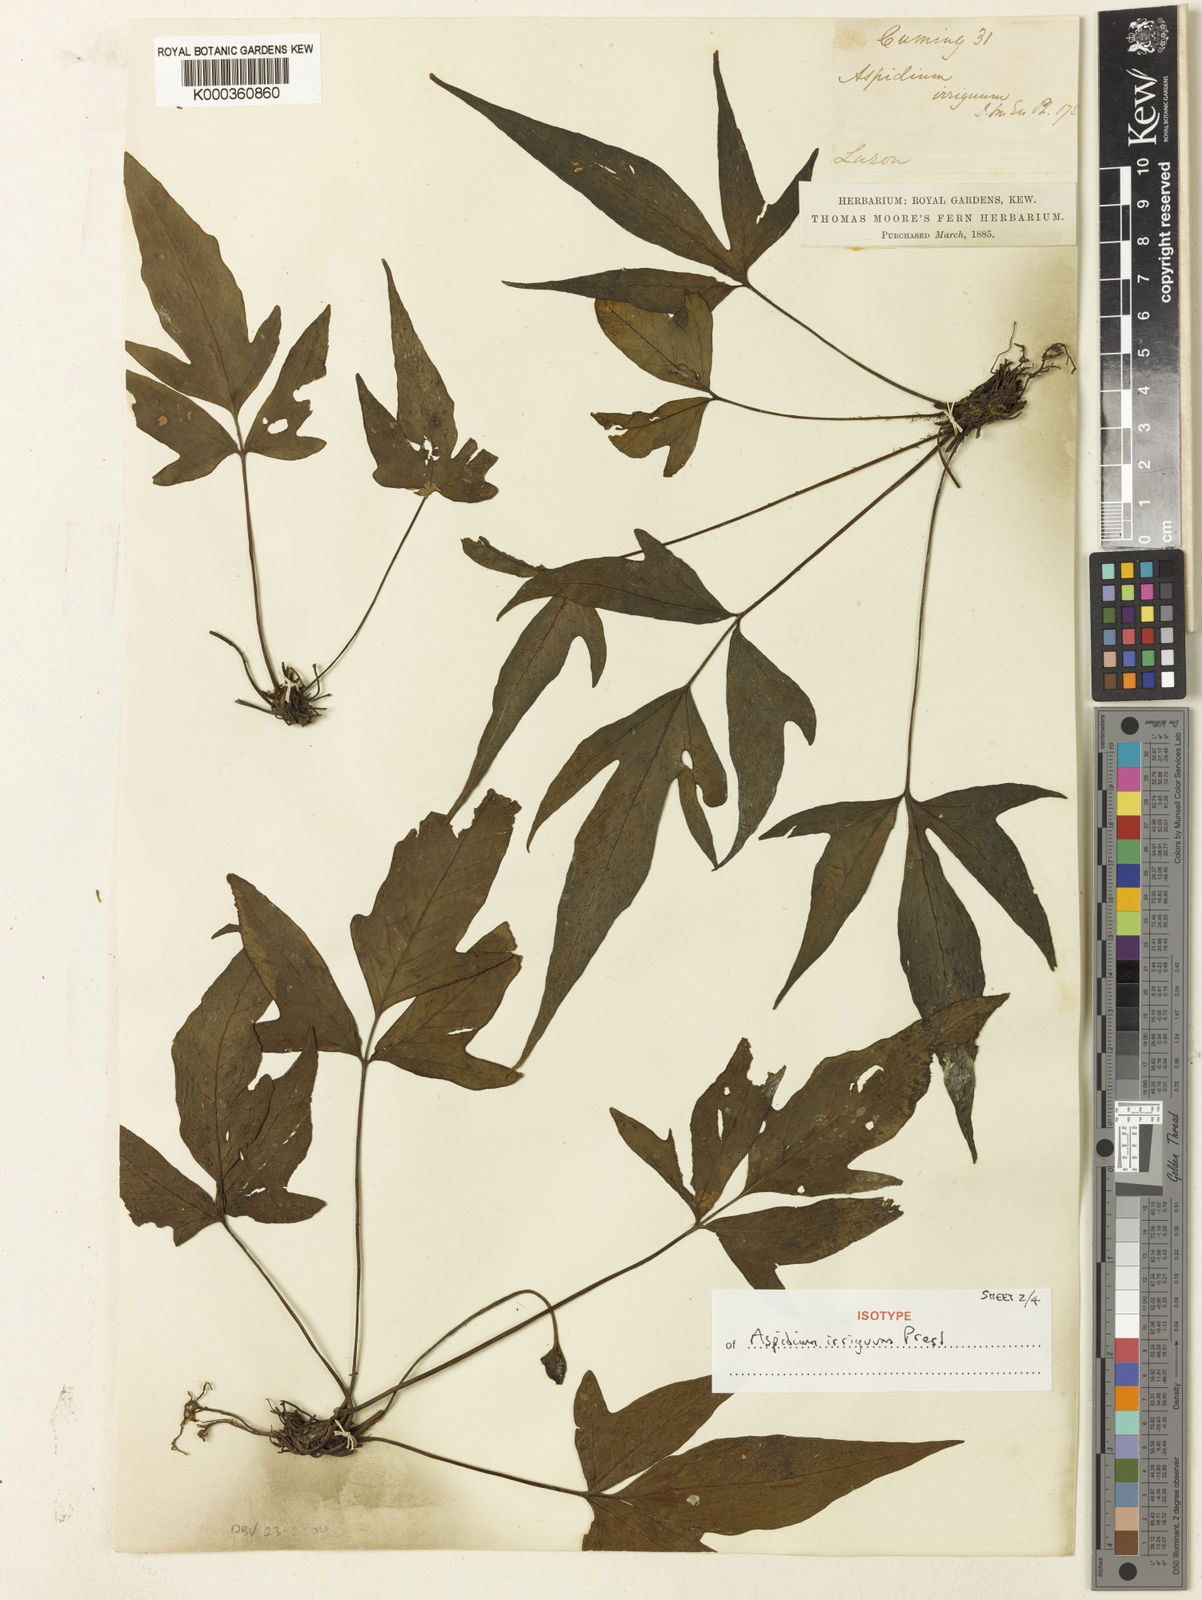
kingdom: Plantae
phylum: Tracheophyta
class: Polypodiopsida
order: Polypodiales
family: Tectariaceae
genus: Tectaria
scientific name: Tectaria
